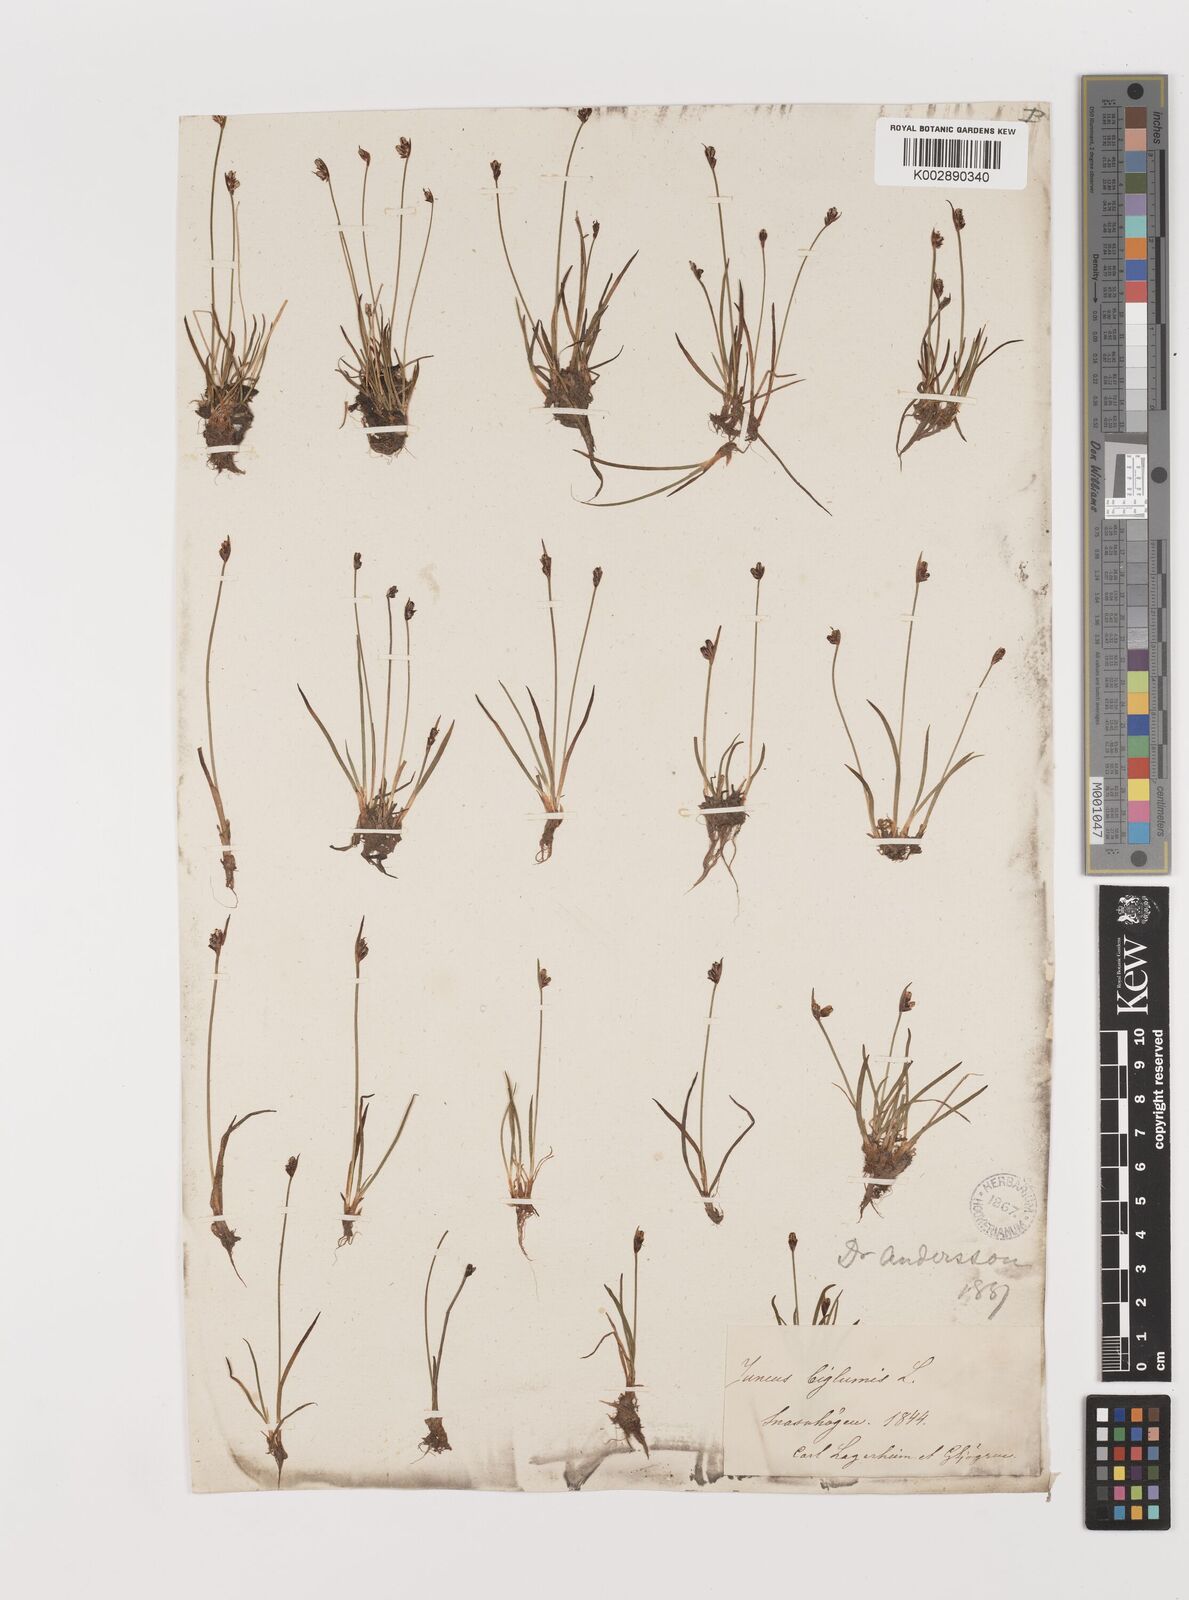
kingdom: Plantae
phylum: Tracheophyta
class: Liliopsida
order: Poales
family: Juncaceae
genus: Juncus
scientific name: Juncus biglumis
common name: Two-flowered rush
